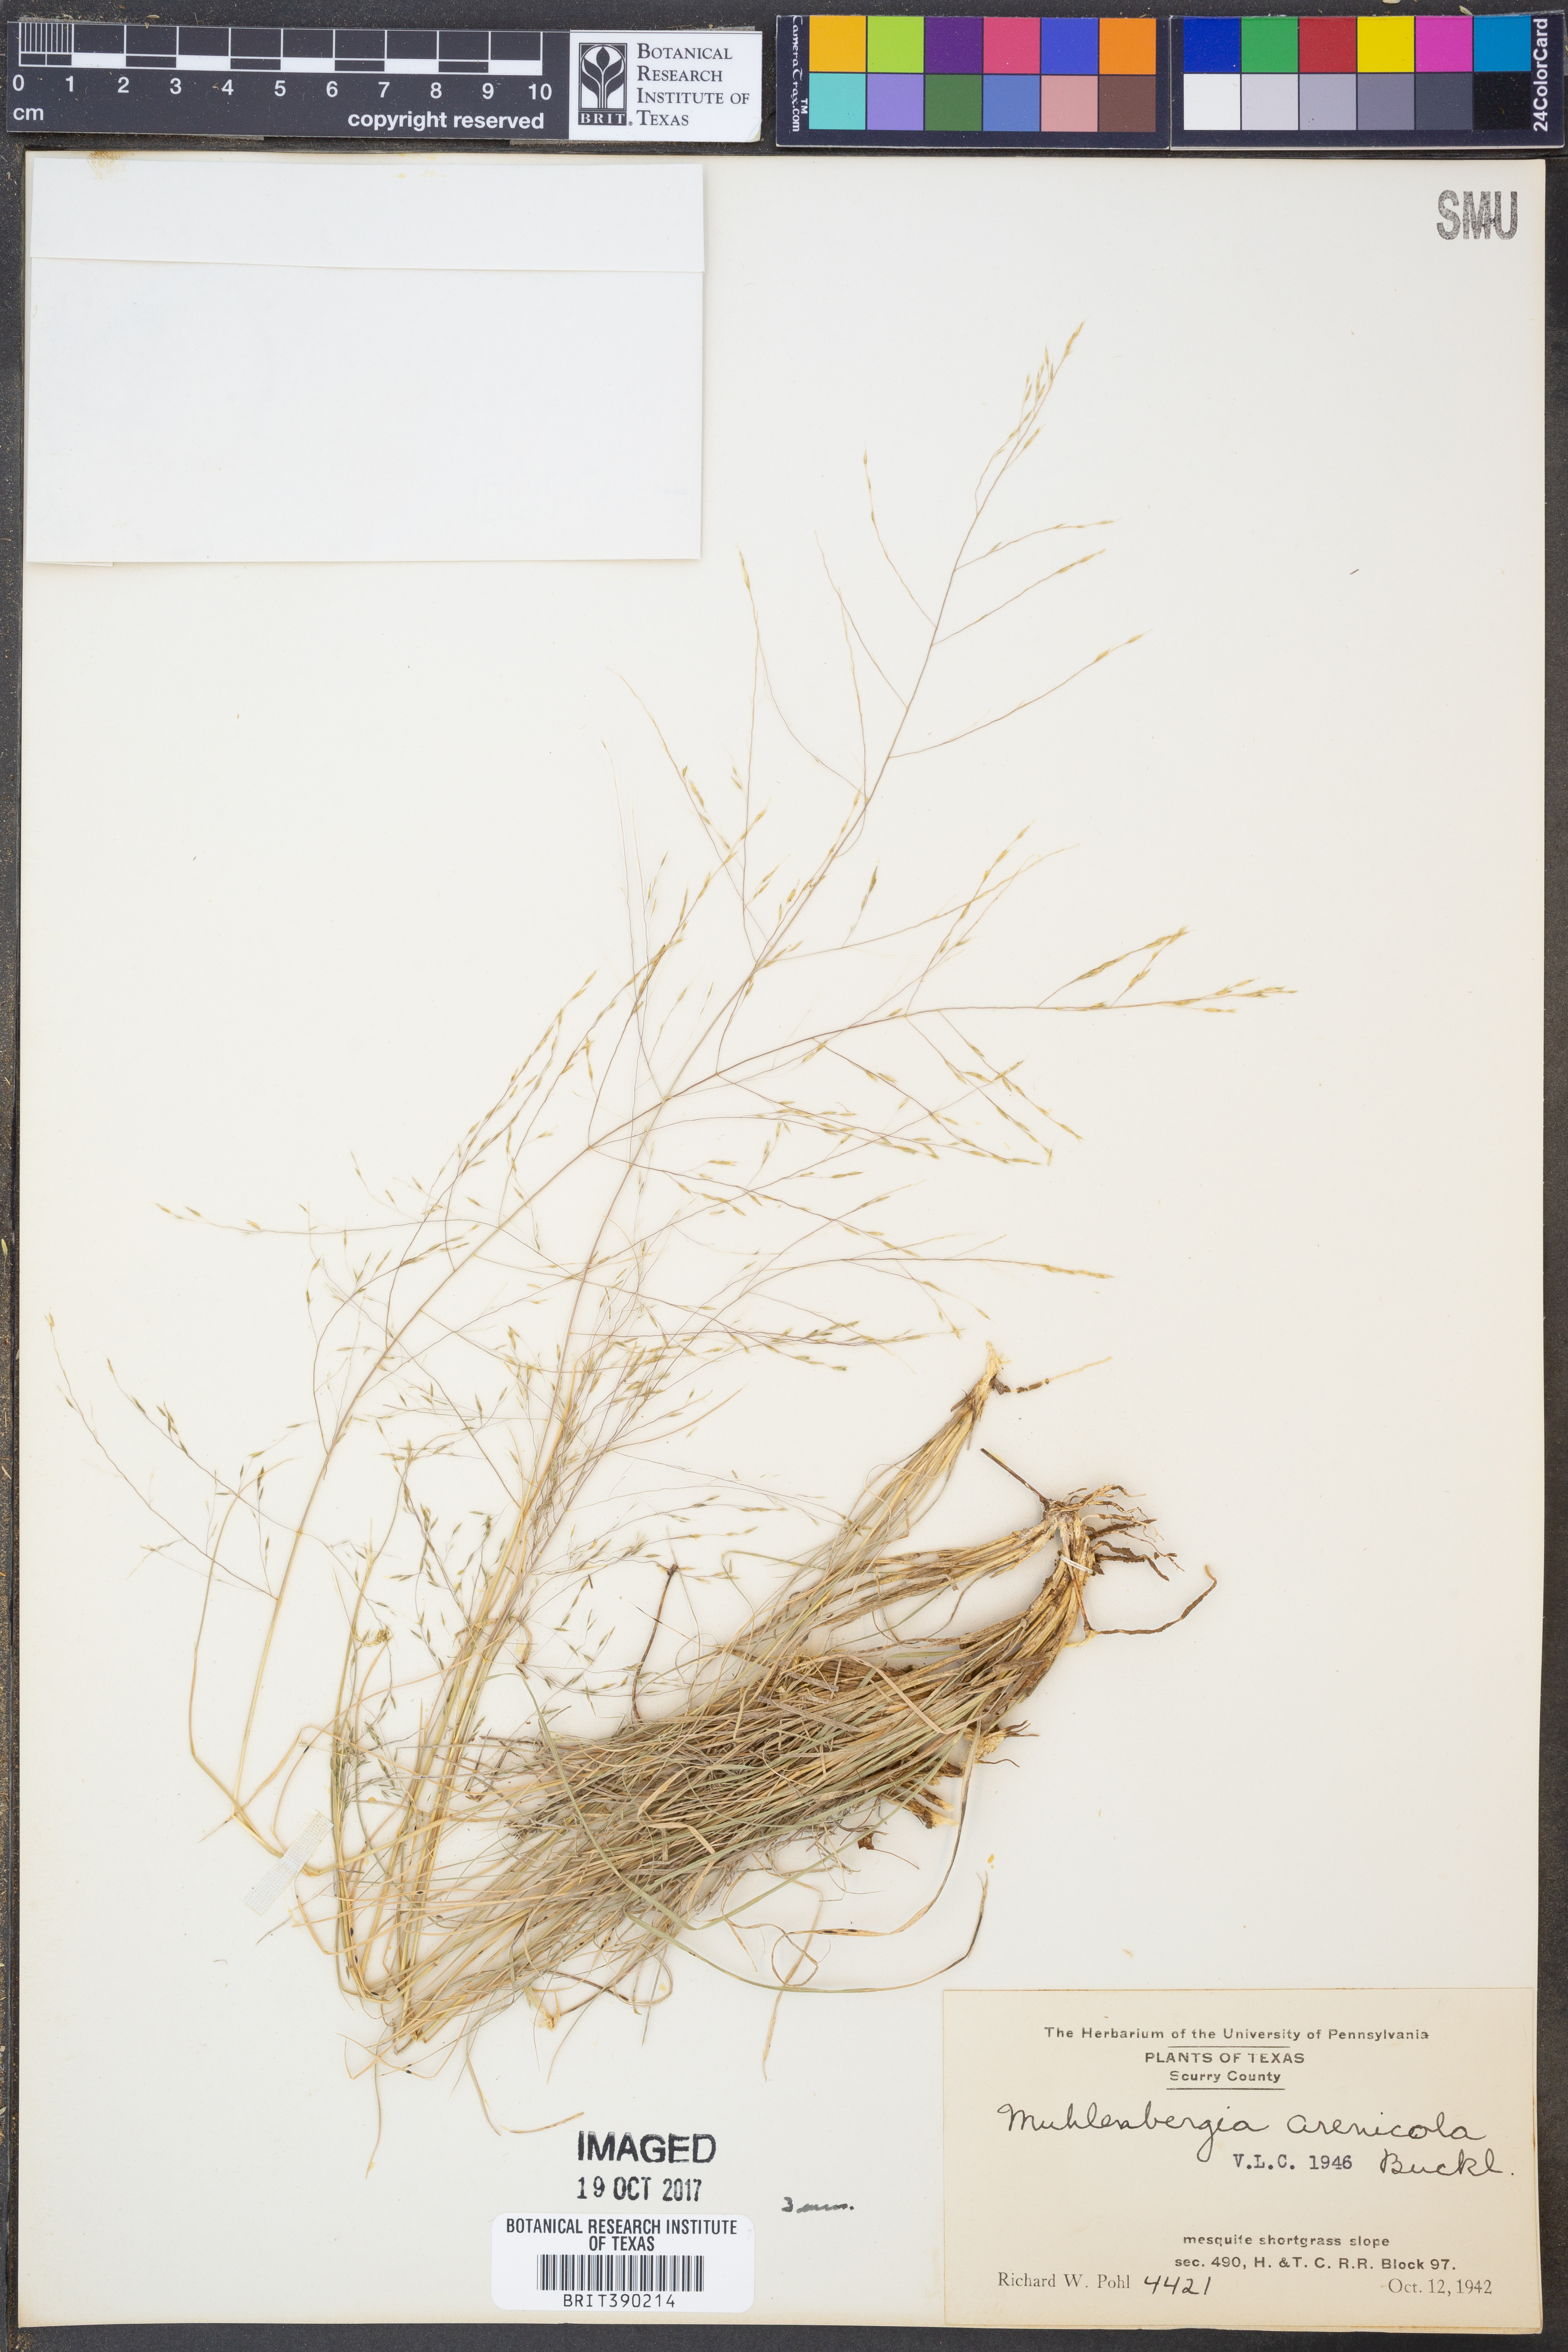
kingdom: Plantae
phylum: Tracheophyta
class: Liliopsida
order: Poales
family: Poaceae
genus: Muhlenbergia
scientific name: Muhlenbergia arenicola
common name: Sand muhly
